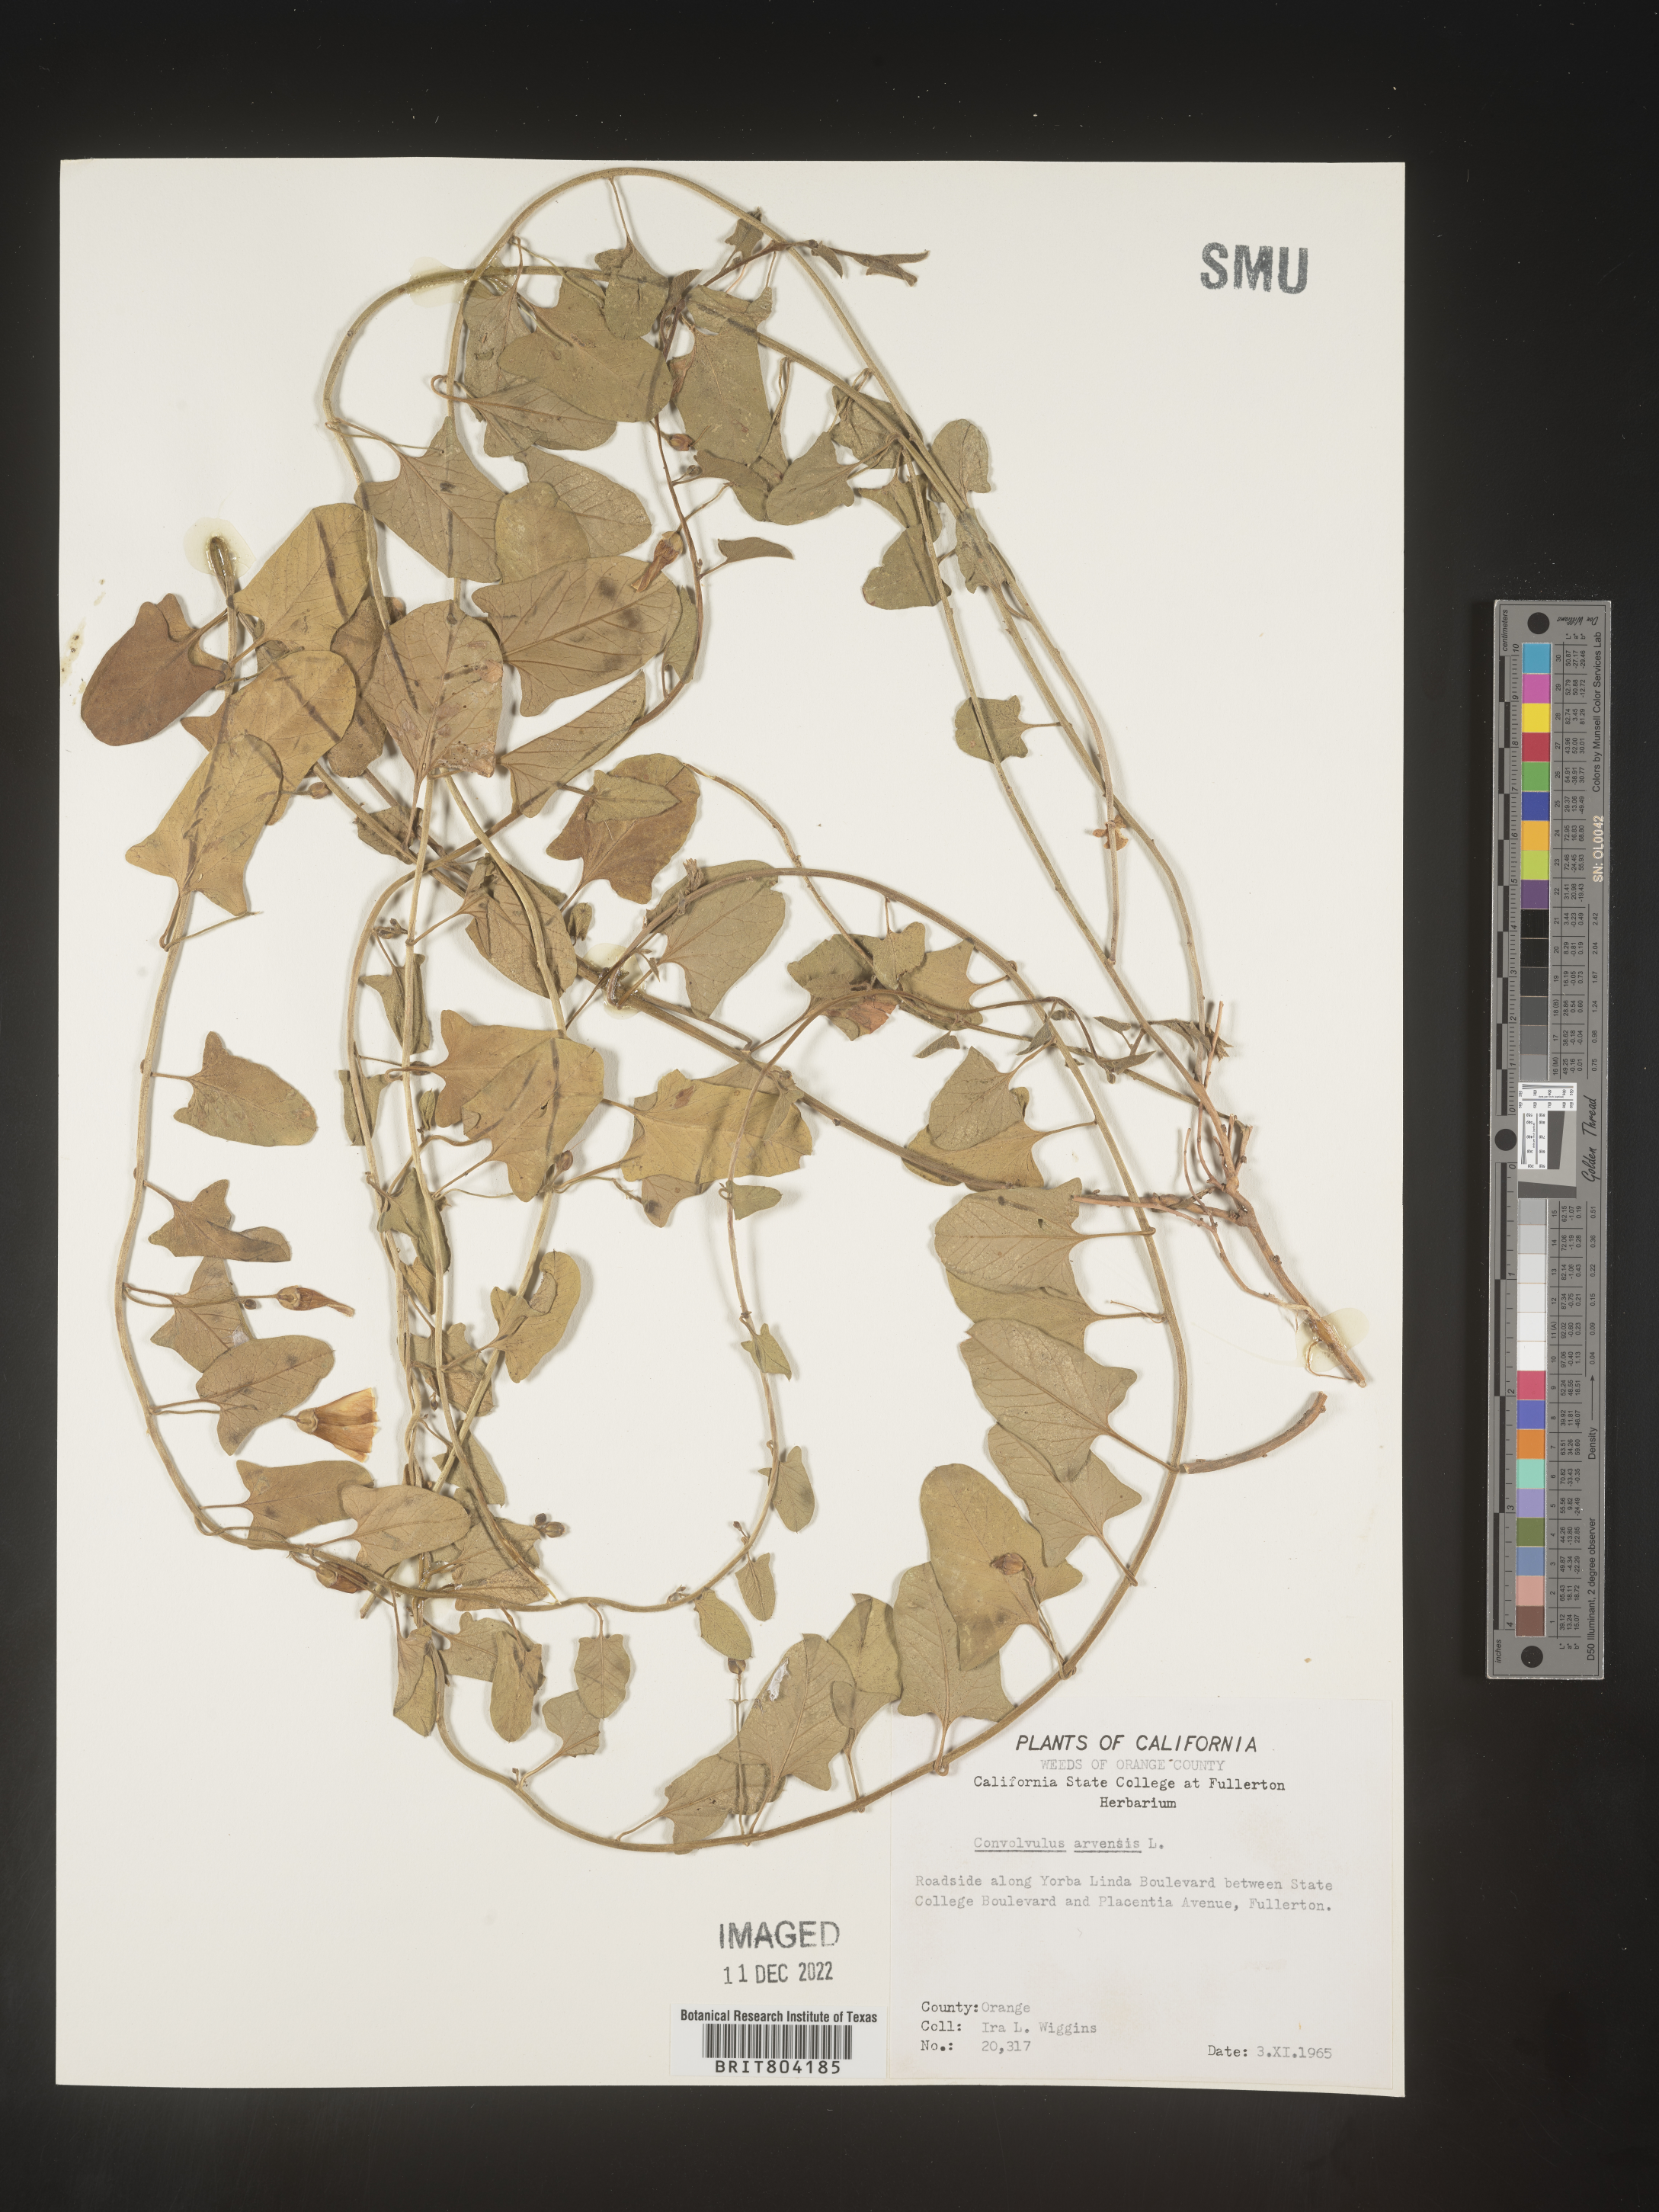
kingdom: Plantae
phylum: Tracheophyta
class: Magnoliopsida
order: Solanales
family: Convolvulaceae
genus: Convolvulus
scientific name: Convolvulus arvensis
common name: Field bindweed
